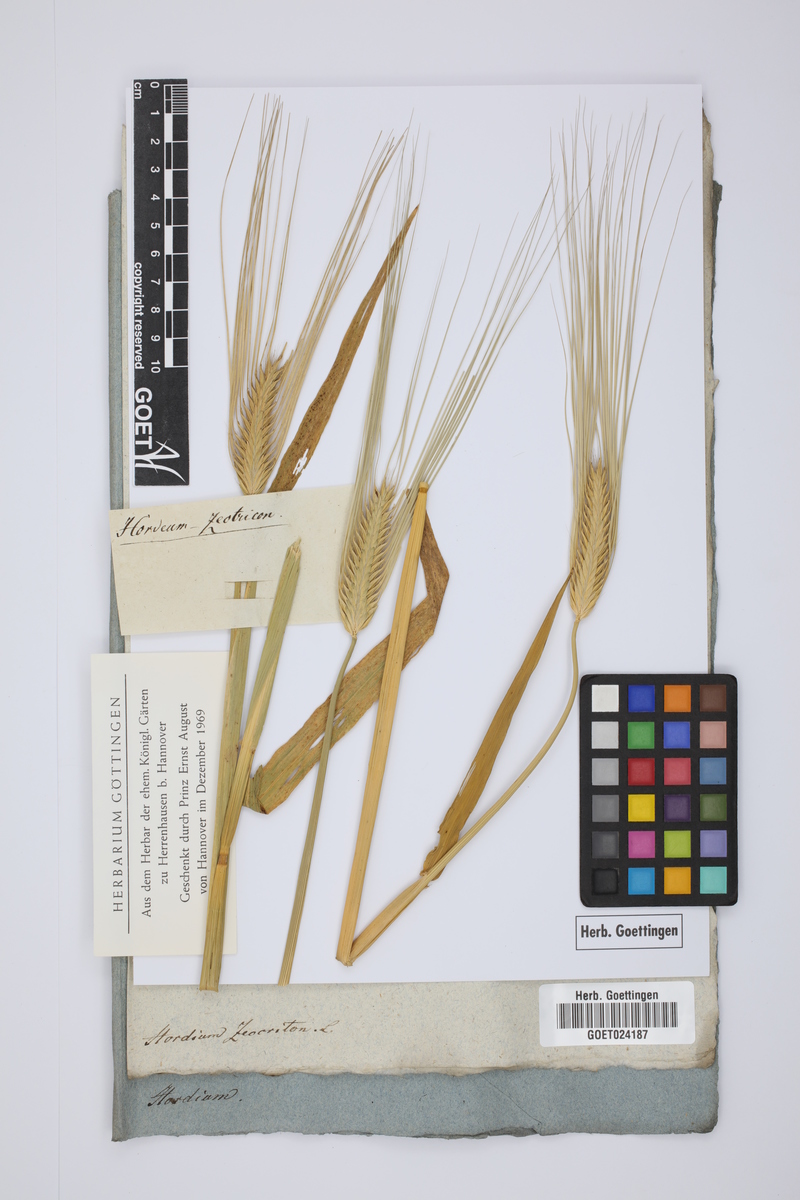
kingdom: Plantae
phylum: Tracheophyta
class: Liliopsida
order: Poales
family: Poaceae
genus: Hordeum
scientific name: Hordeum distichon
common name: Two-rowed barley
